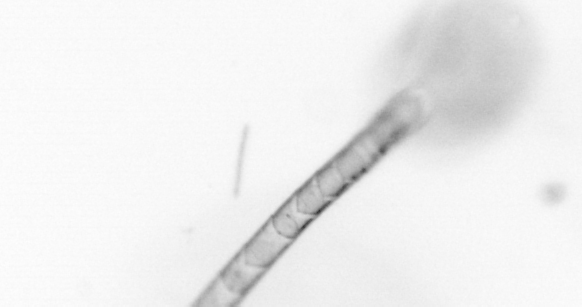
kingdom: Animalia
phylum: Chordata
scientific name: Chordata
